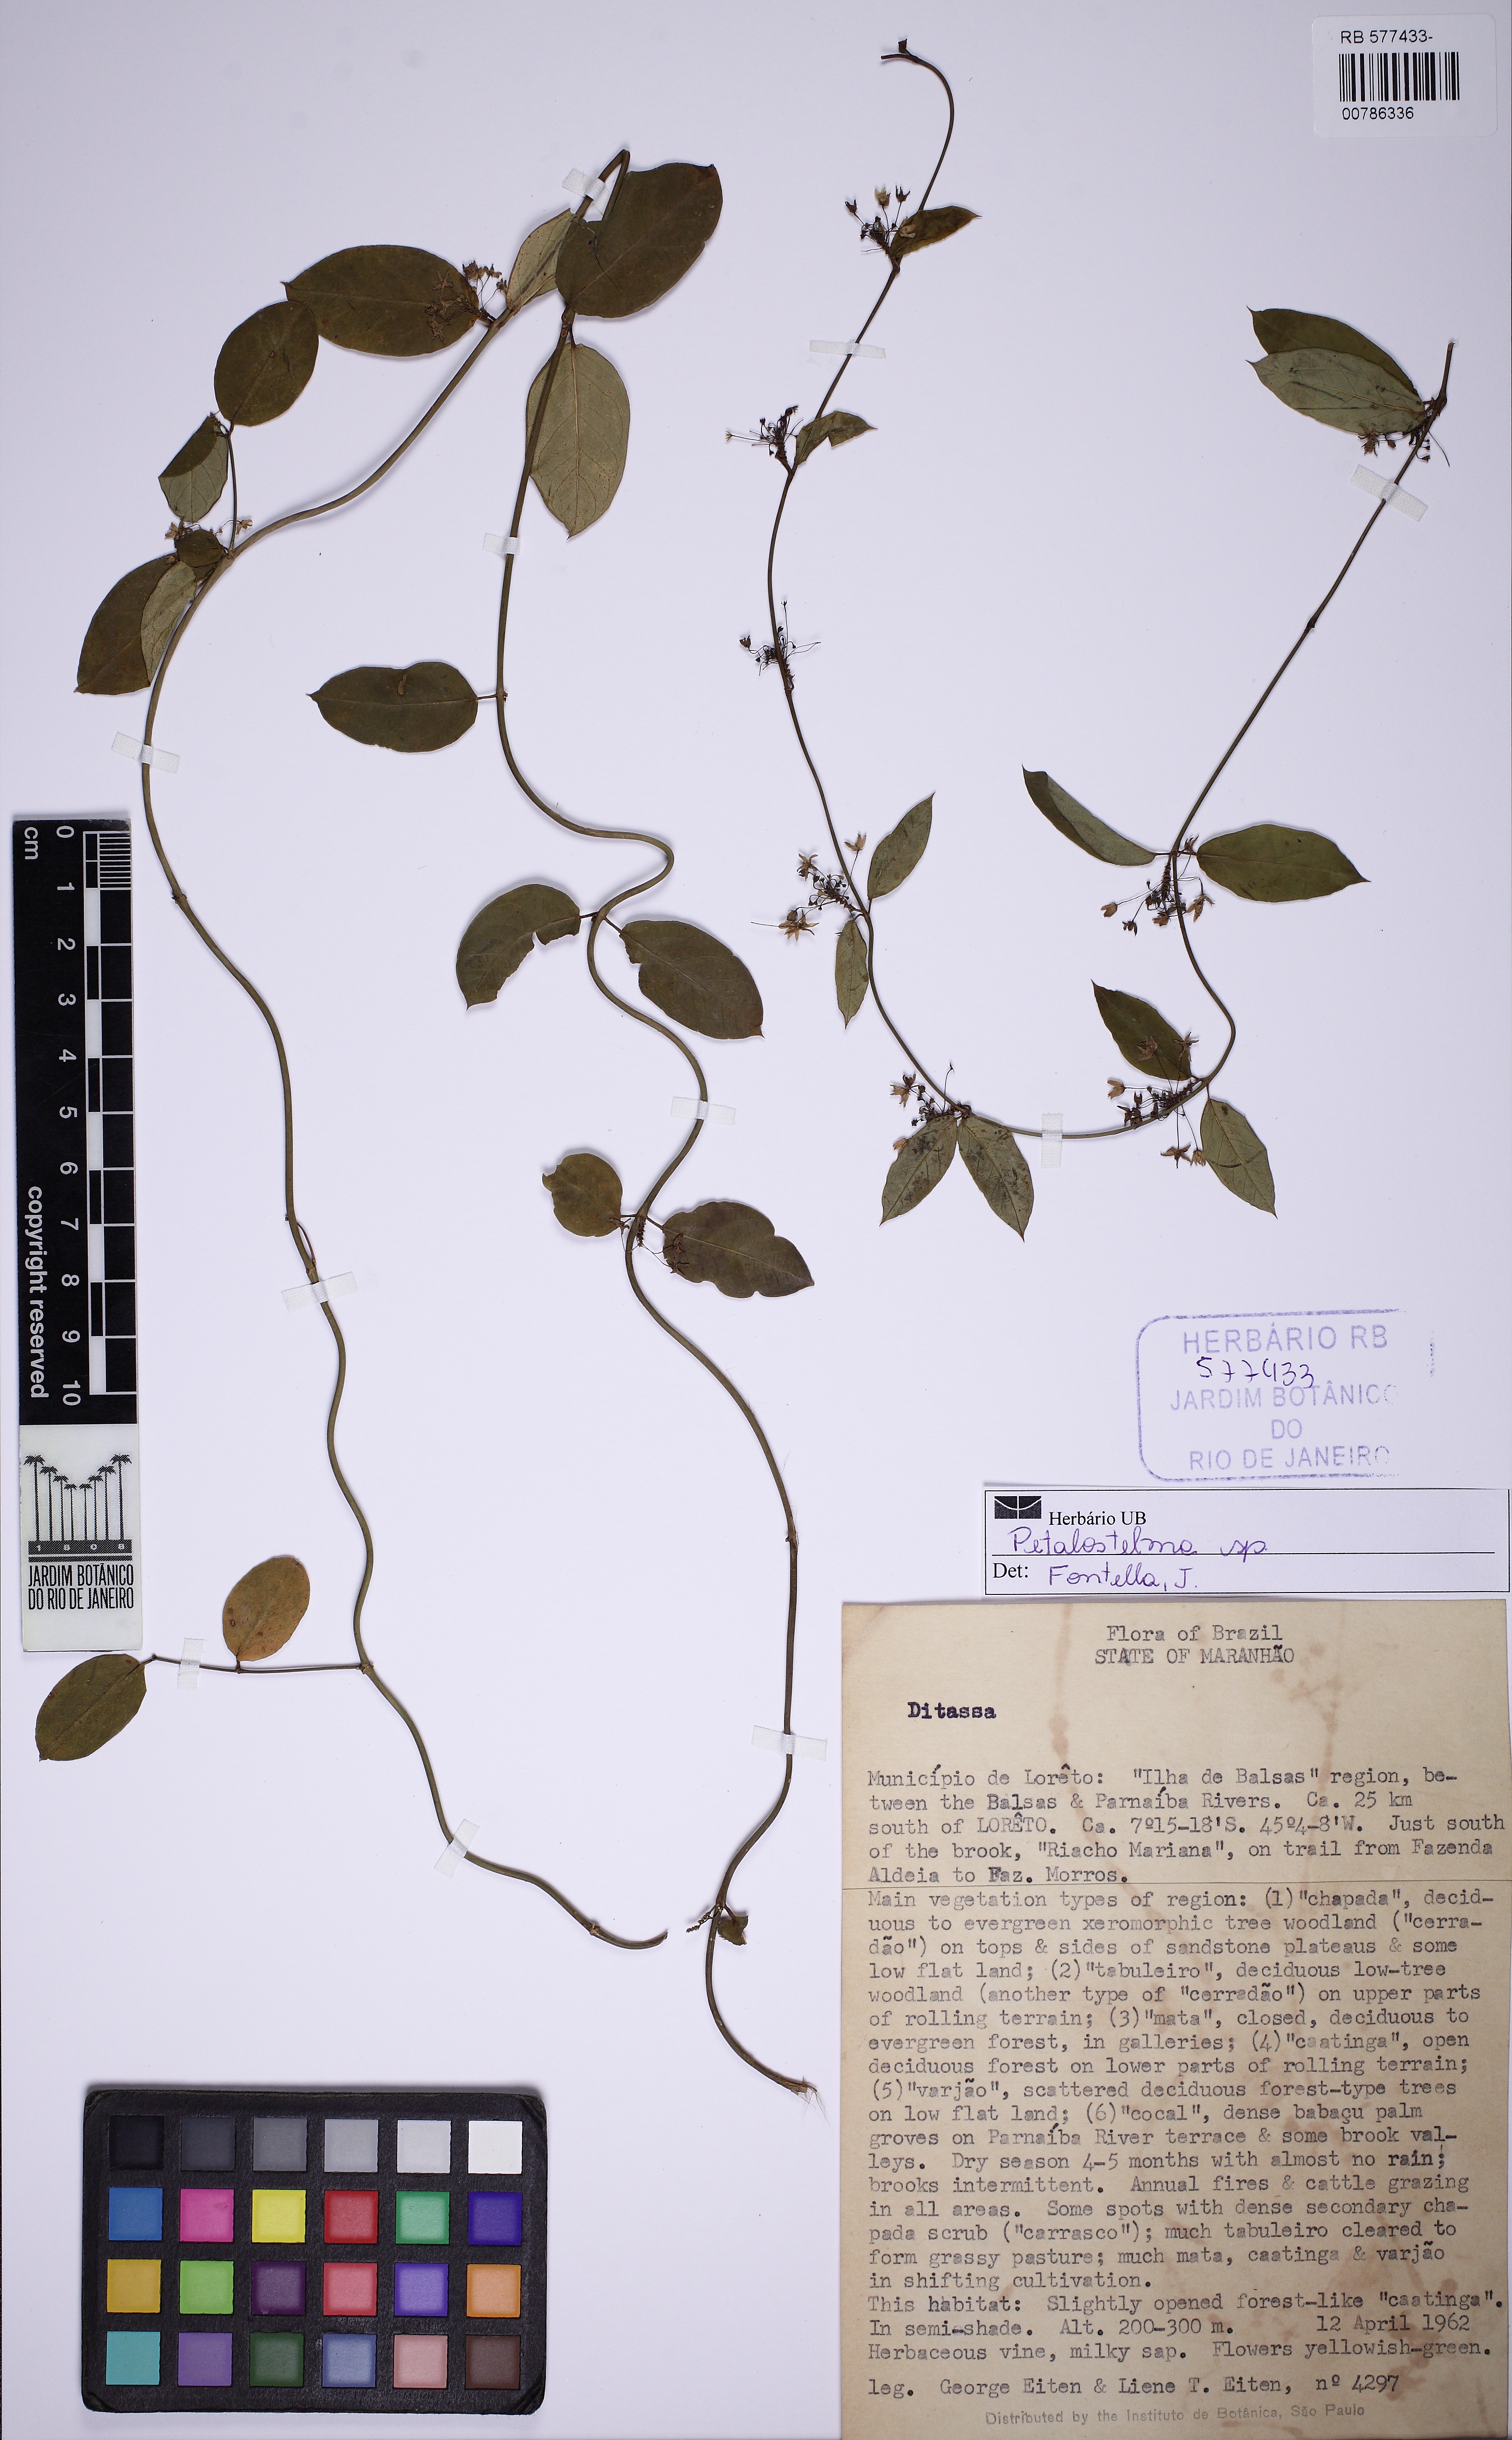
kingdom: Plantae
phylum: Tracheophyta
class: Magnoliopsida
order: Gentianales
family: Apocynaceae
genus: Petalostelma
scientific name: Petalostelma bracteolatum
